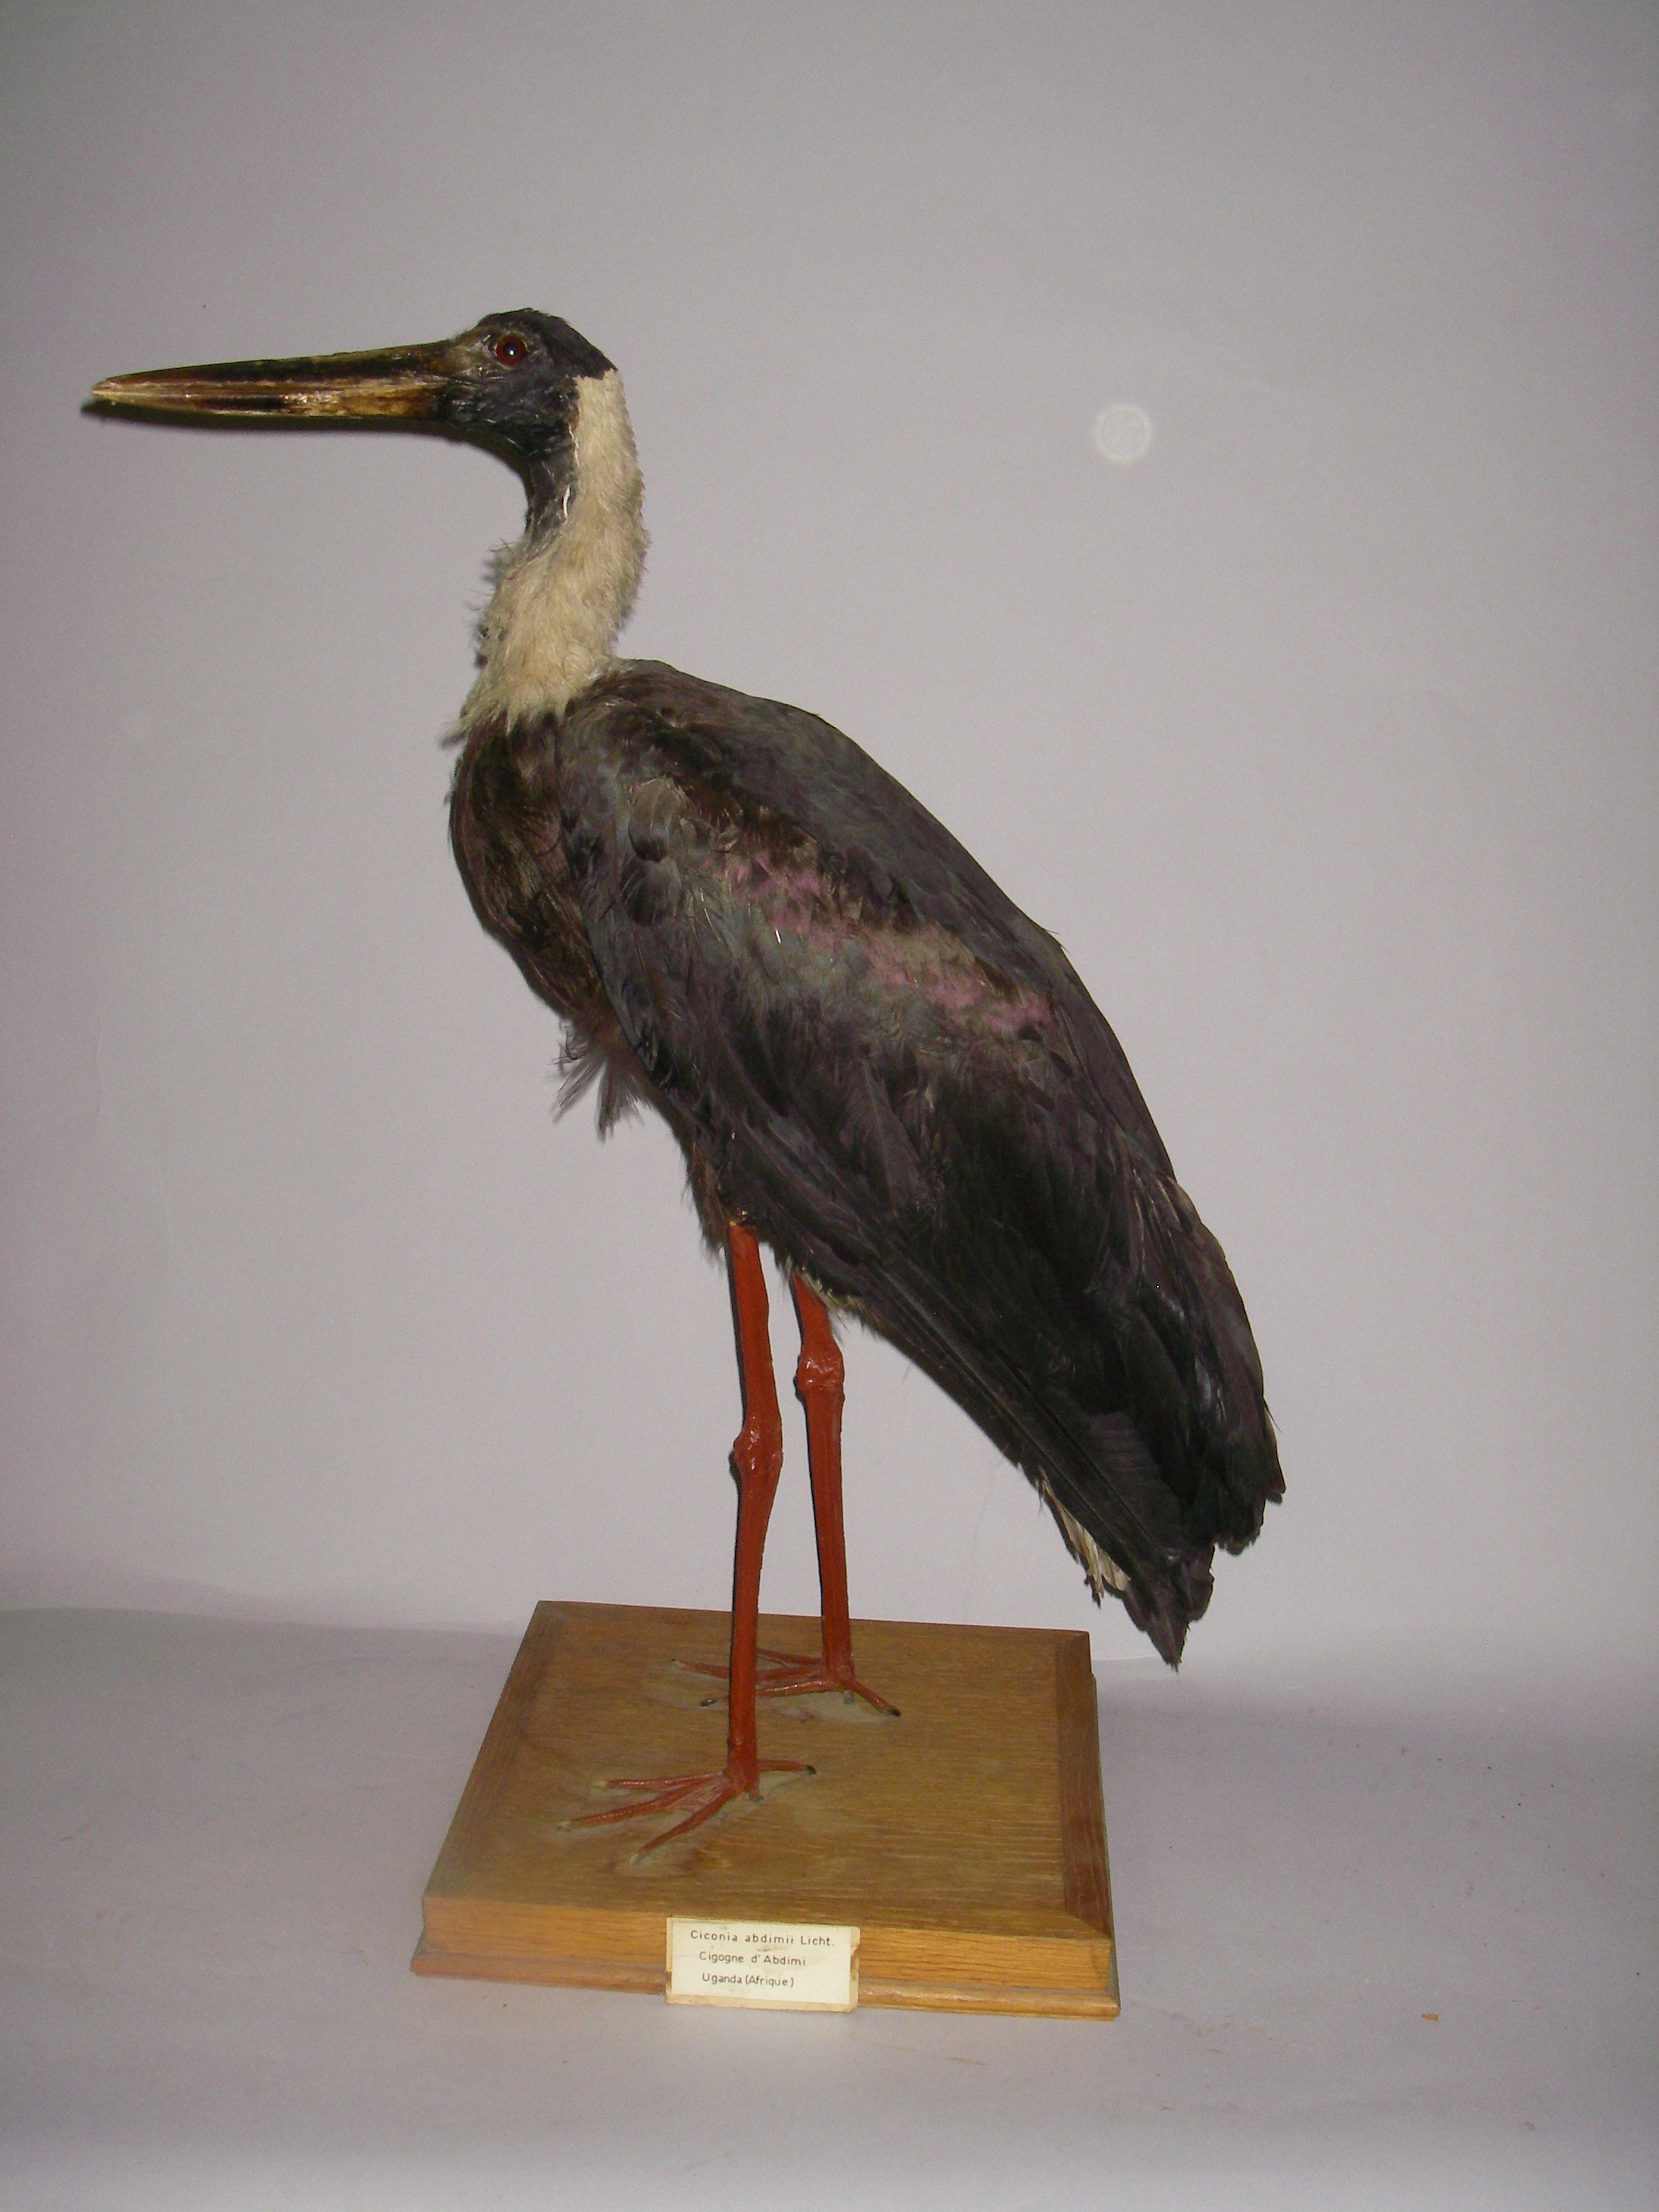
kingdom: Animalia
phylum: Chordata
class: Aves
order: Ciconiiformes
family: Ciconiidae
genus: Ciconia
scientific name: Ciconia episcopus
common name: Woolly-necked stork
